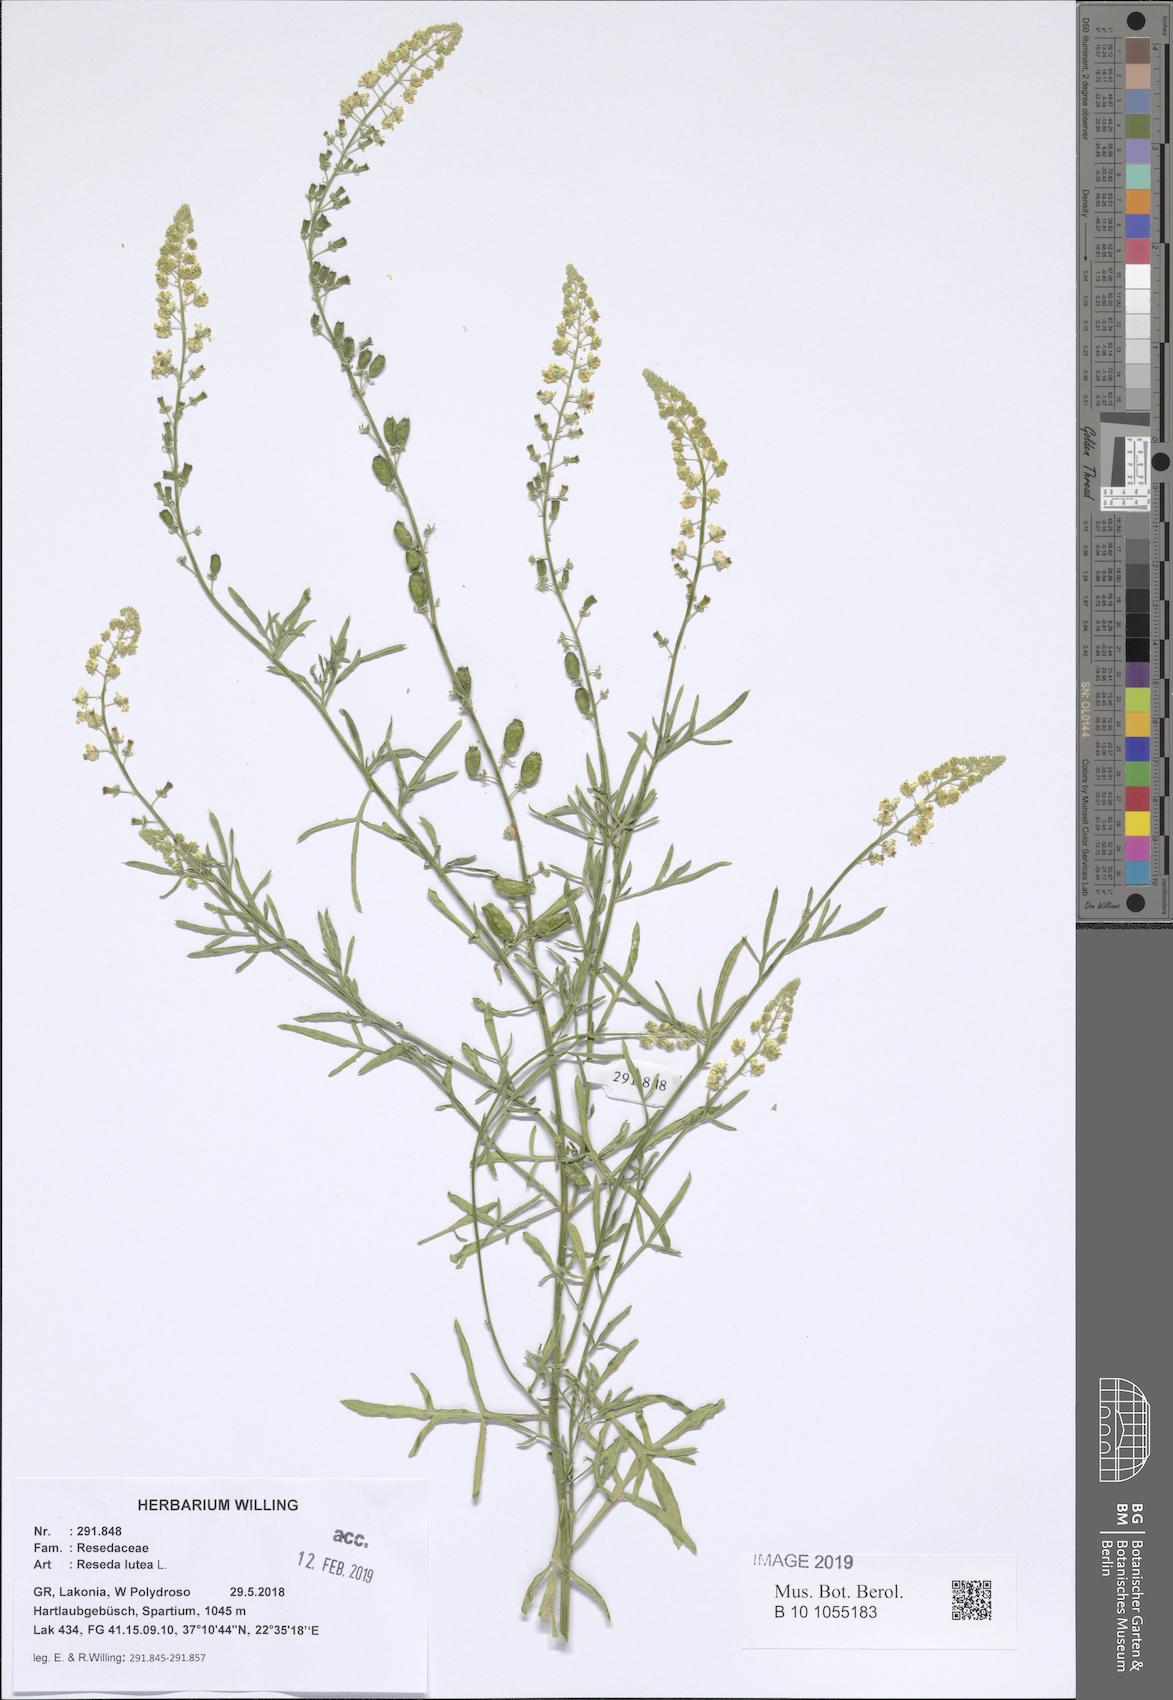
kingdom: Plantae
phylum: Tracheophyta
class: Magnoliopsida
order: Brassicales
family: Resedaceae
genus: Reseda
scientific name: Reseda lutea
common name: Wild mignonette
